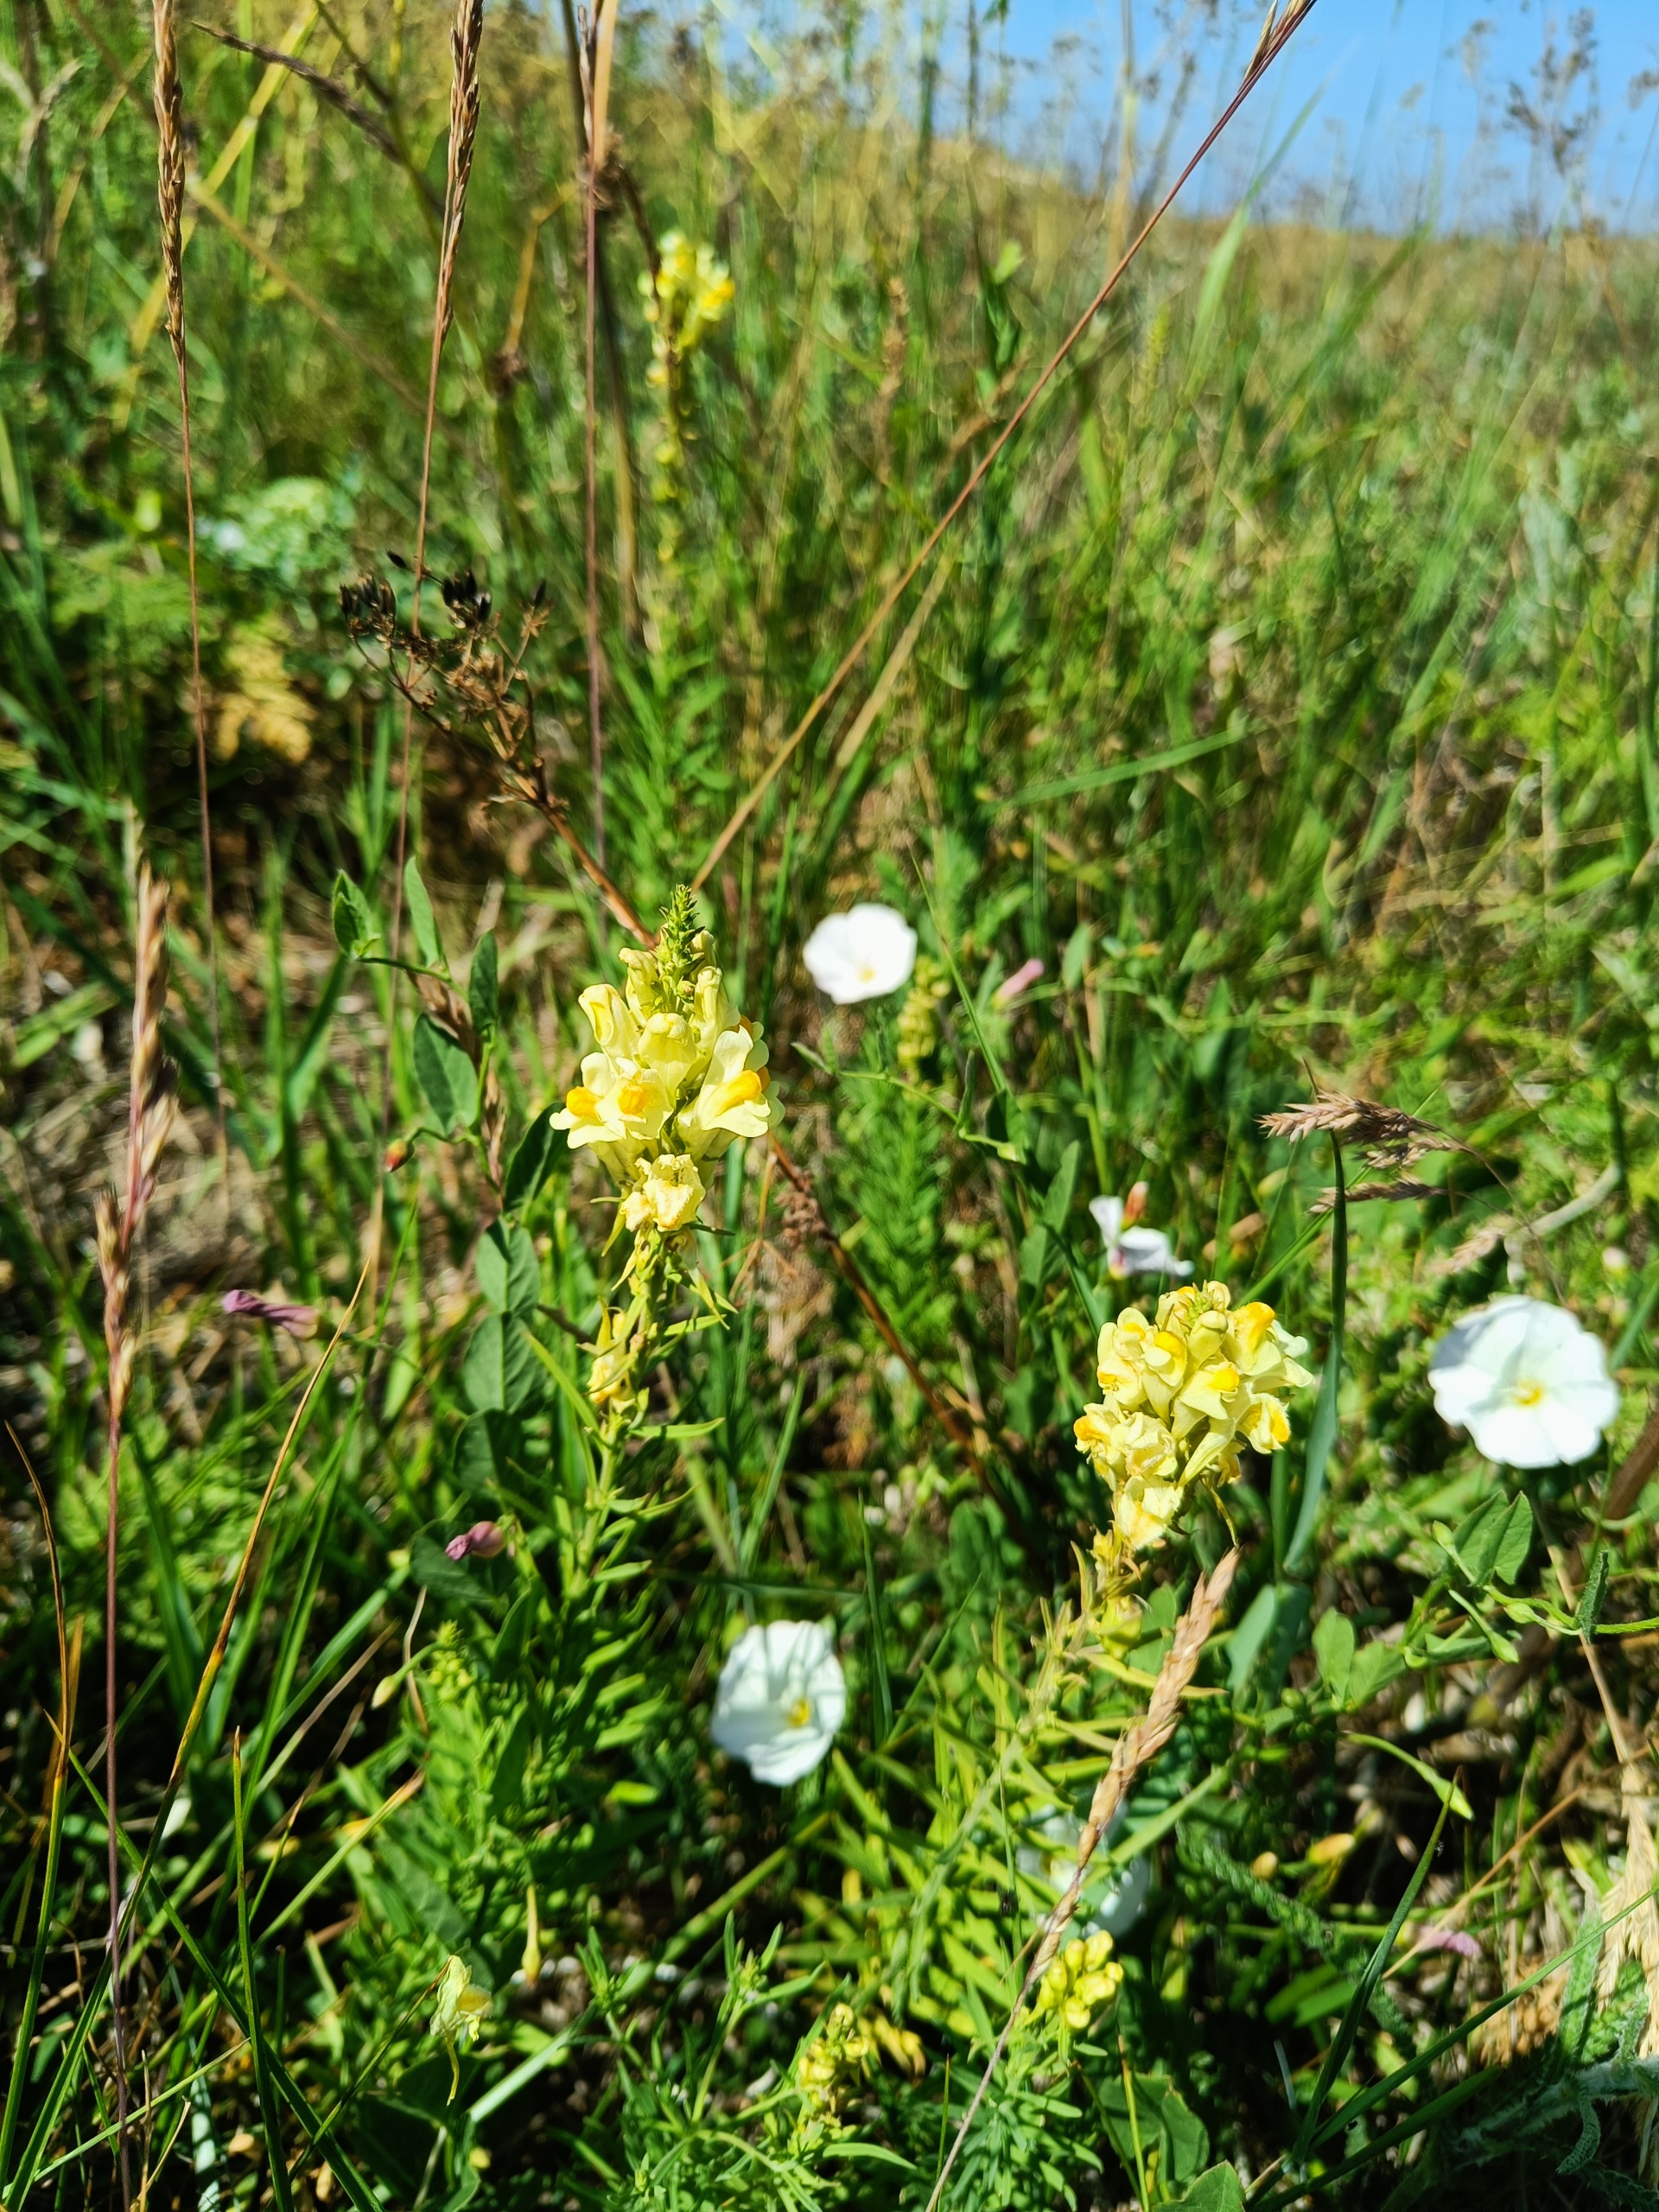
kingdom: Plantae
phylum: Tracheophyta
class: Magnoliopsida
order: Lamiales
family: Plantaginaceae
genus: Linaria
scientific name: Linaria vulgaris
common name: Almindelig torskemund
